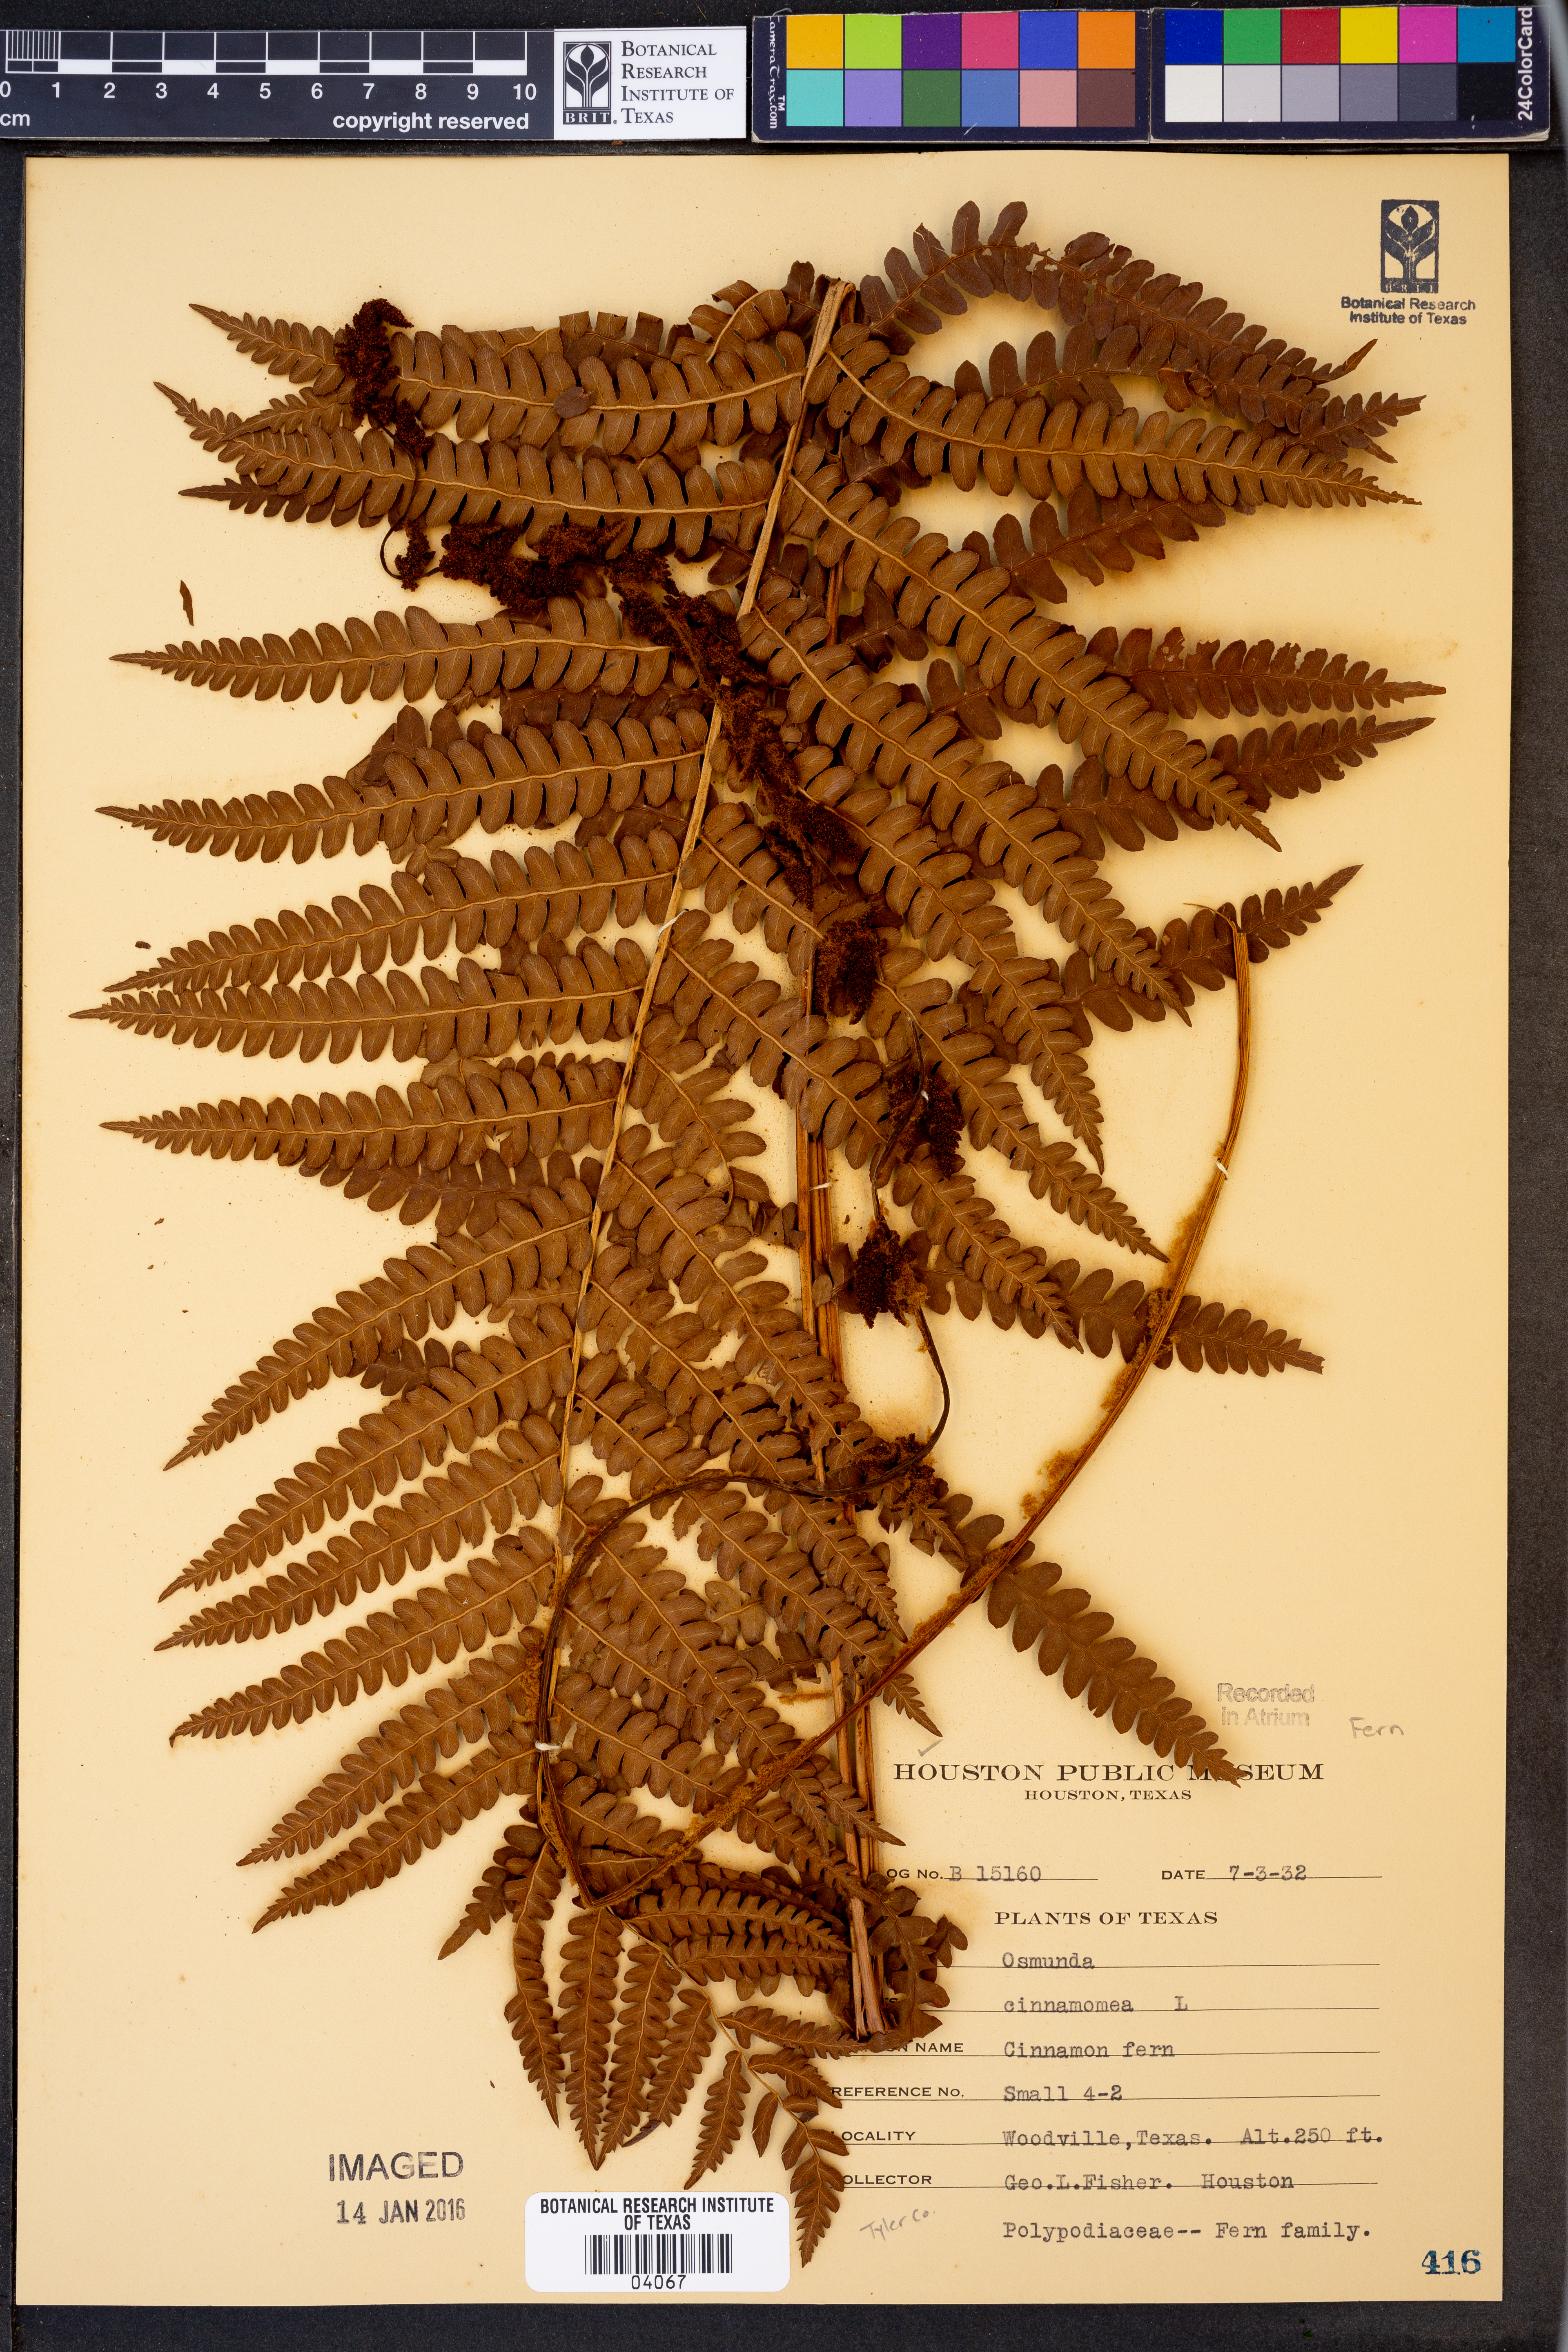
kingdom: Plantae
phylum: Tracheophyta
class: Polypodiopsida
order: Osmundales
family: Osmundaceae
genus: Osmundastrum
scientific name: Osmundastrum cinnamomeum
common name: Cinnamon fern
